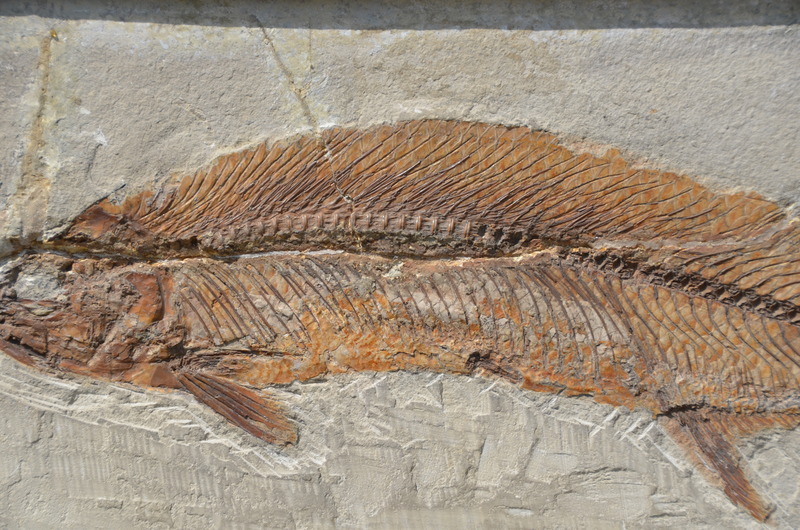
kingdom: Animalia
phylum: Chordata
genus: Thrissops
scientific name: Thrissops formosus
